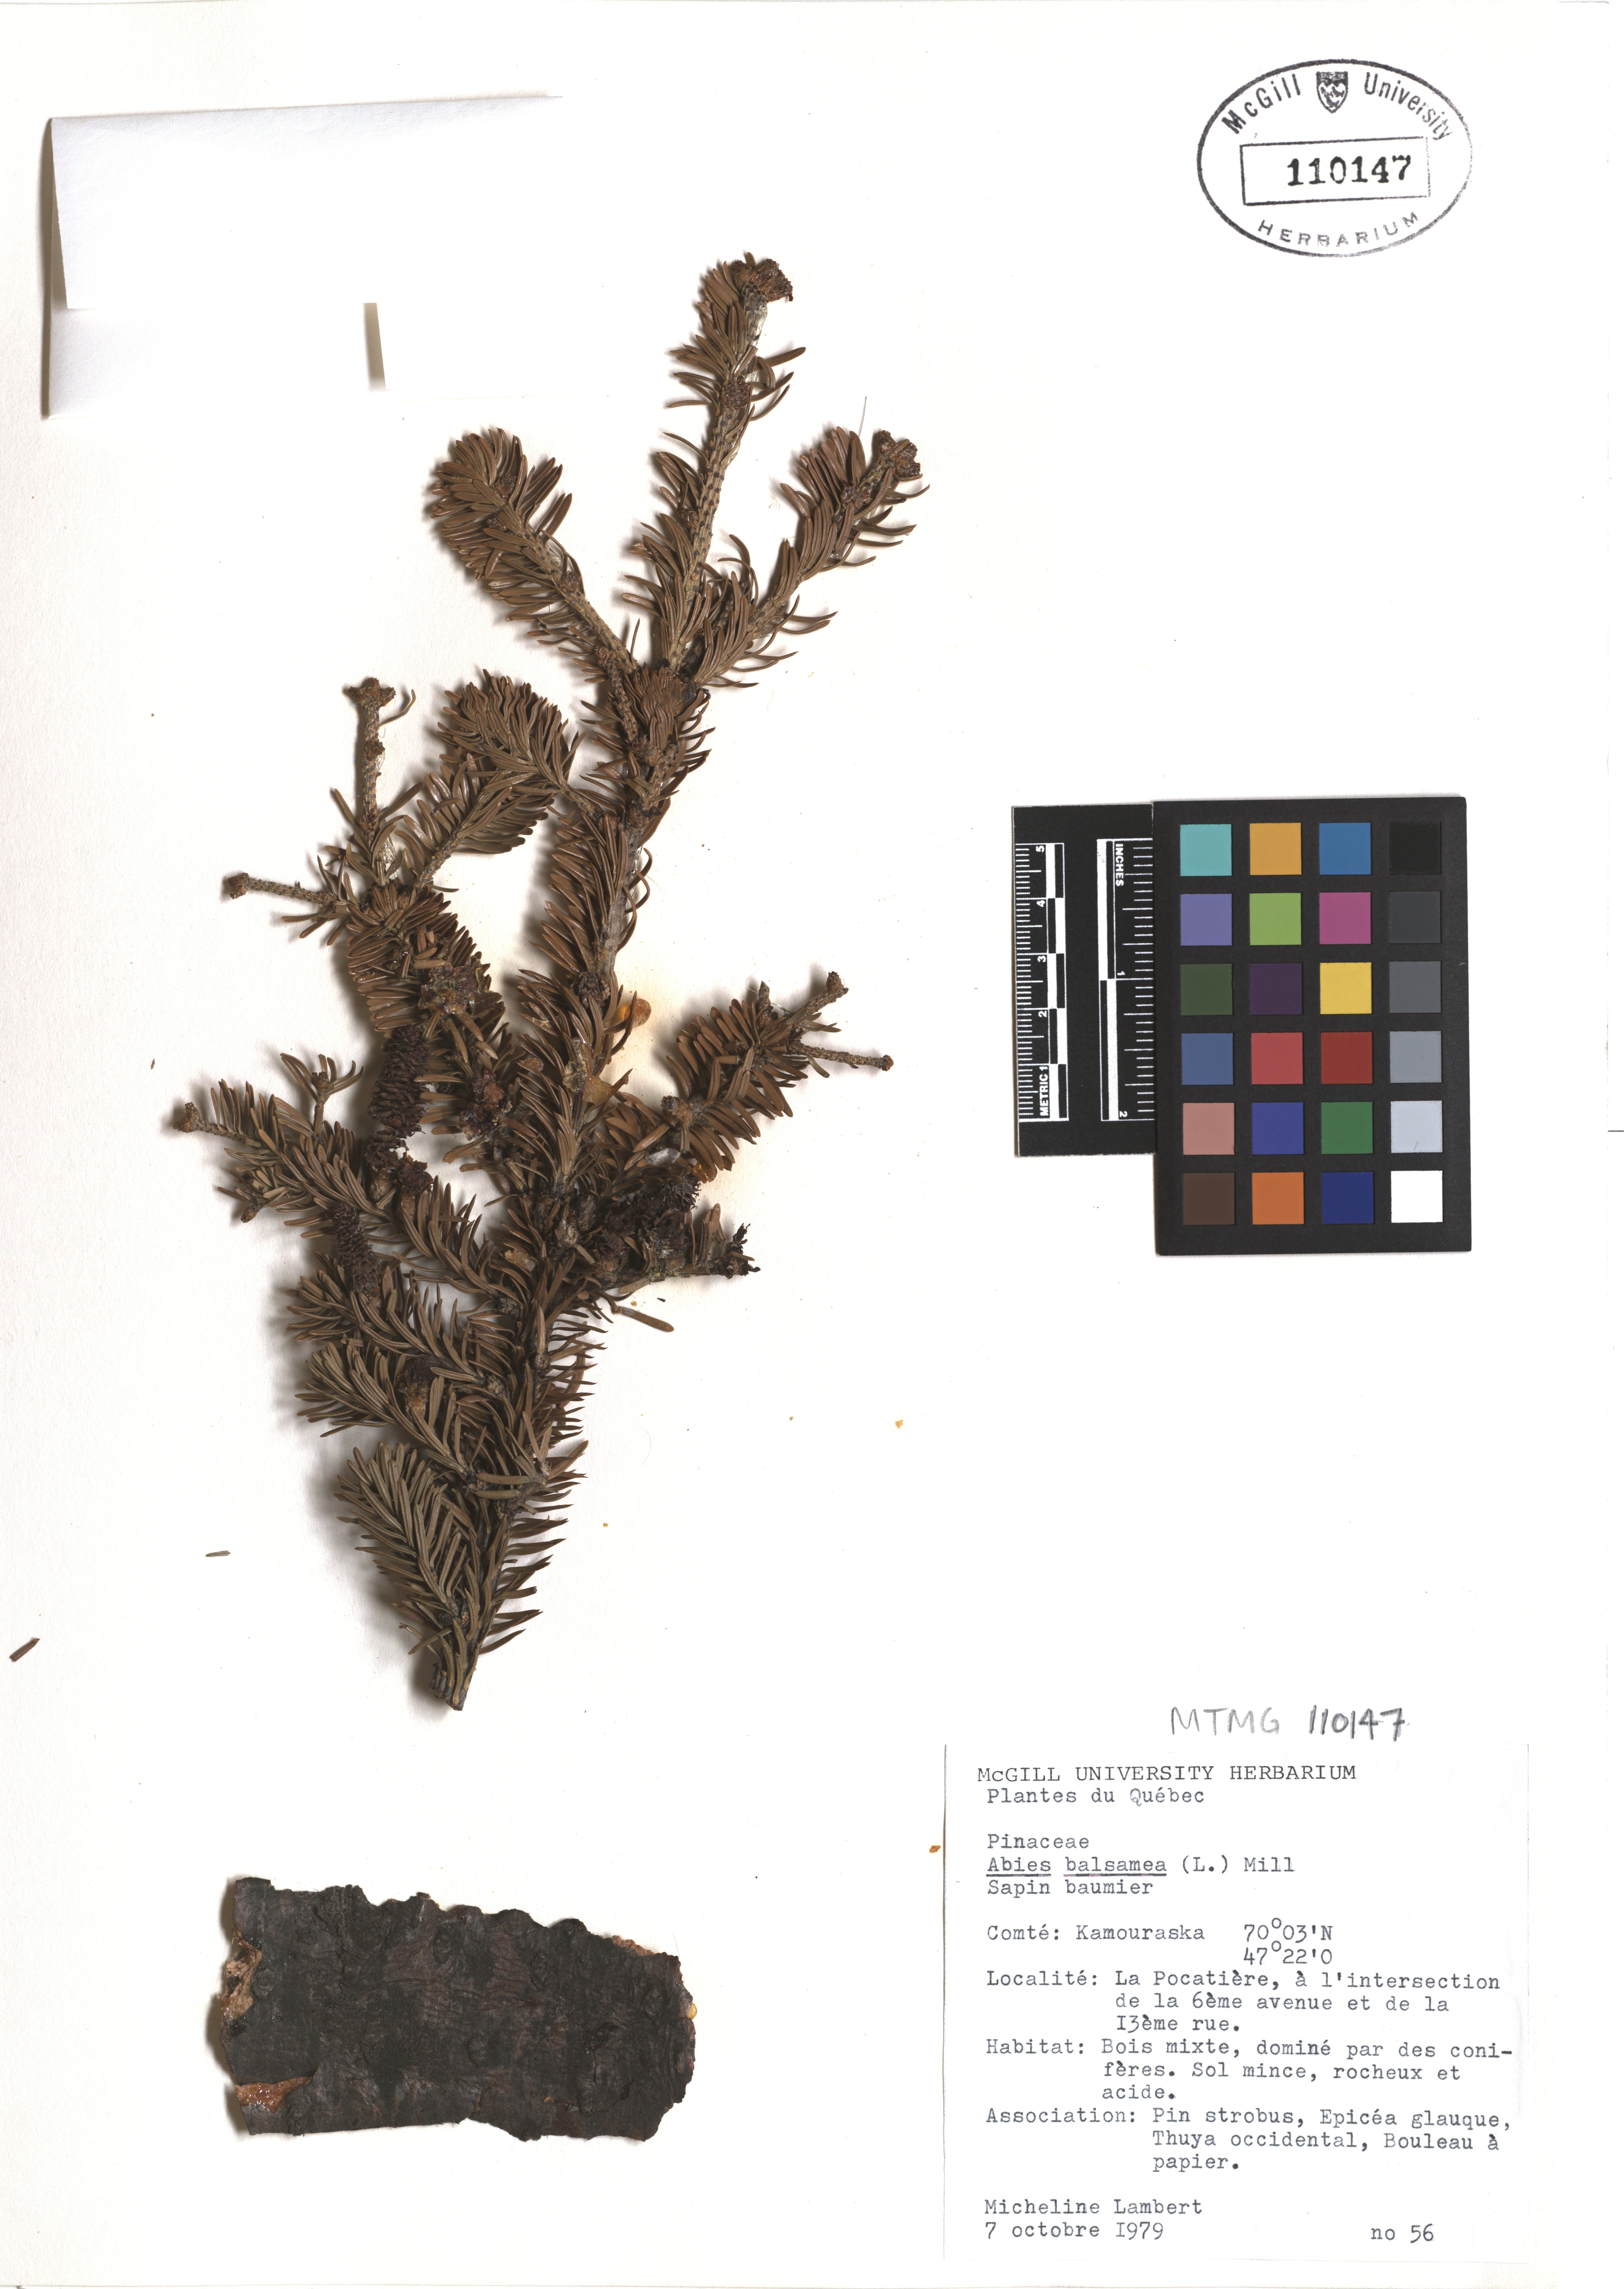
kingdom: Plantae
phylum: Tracheophyta
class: Pinopsida
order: Pinales
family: Pinaceae
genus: Abies
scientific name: Abies balsamea
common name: Balsam fir
